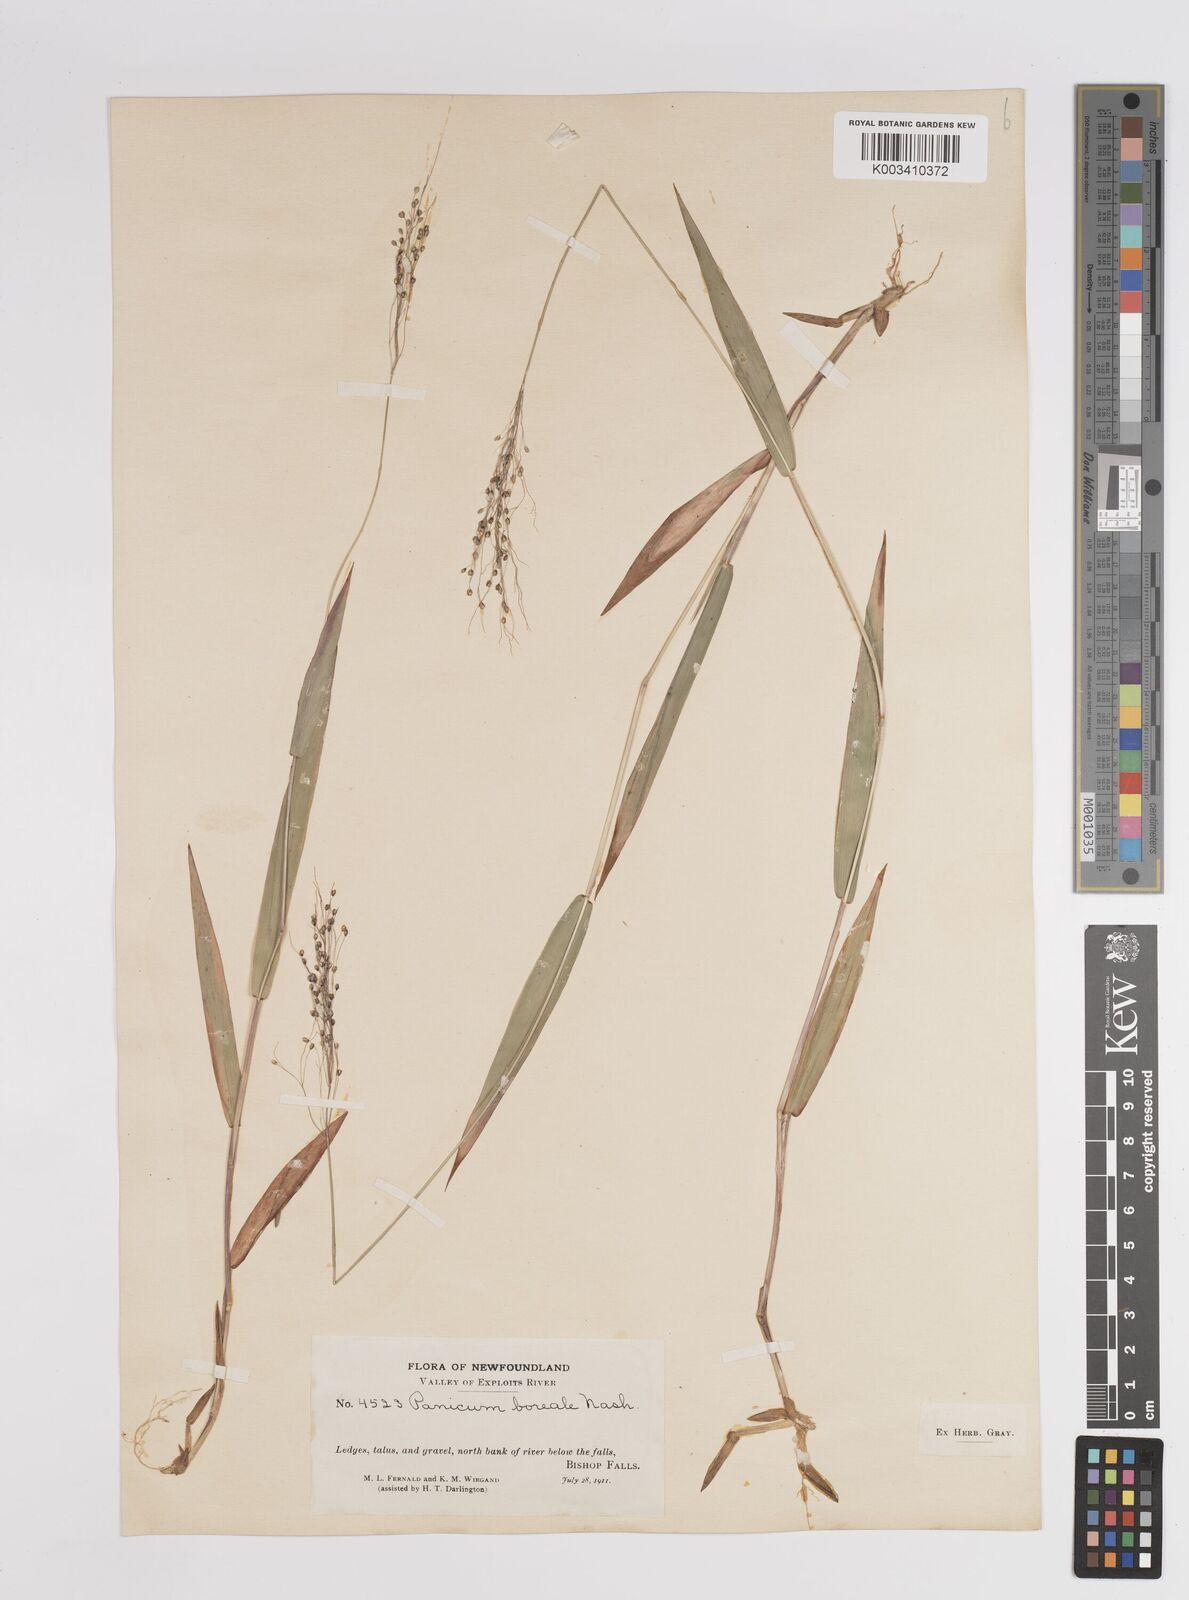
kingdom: Plantae
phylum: Tracheophyta
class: Liliopsida
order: Poales
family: Poaceae
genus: Dichanthelium
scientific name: Dichanthelium boreale
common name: Northern panicgrass
